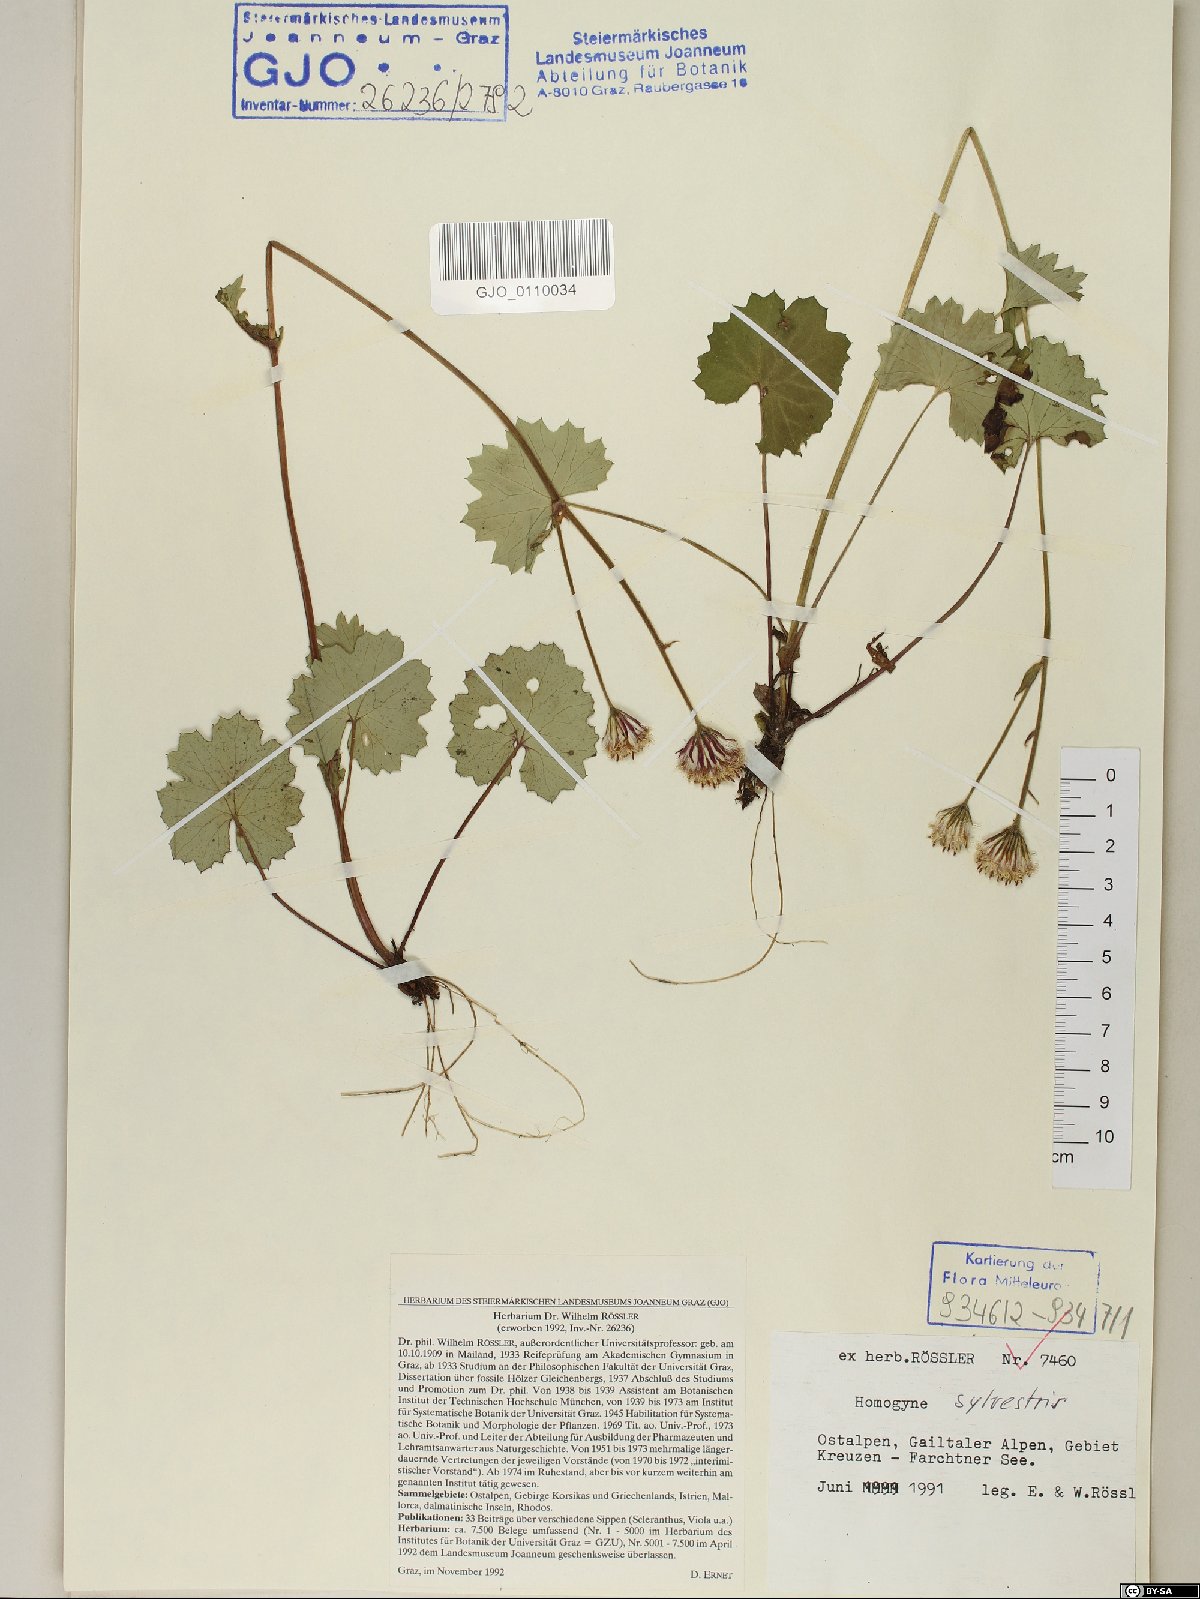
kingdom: Plantae
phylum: Tracheophyta
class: Magnoliopsida
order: Asterales
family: Asteraceae
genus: Homogyne
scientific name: Homogyne sylvestris
